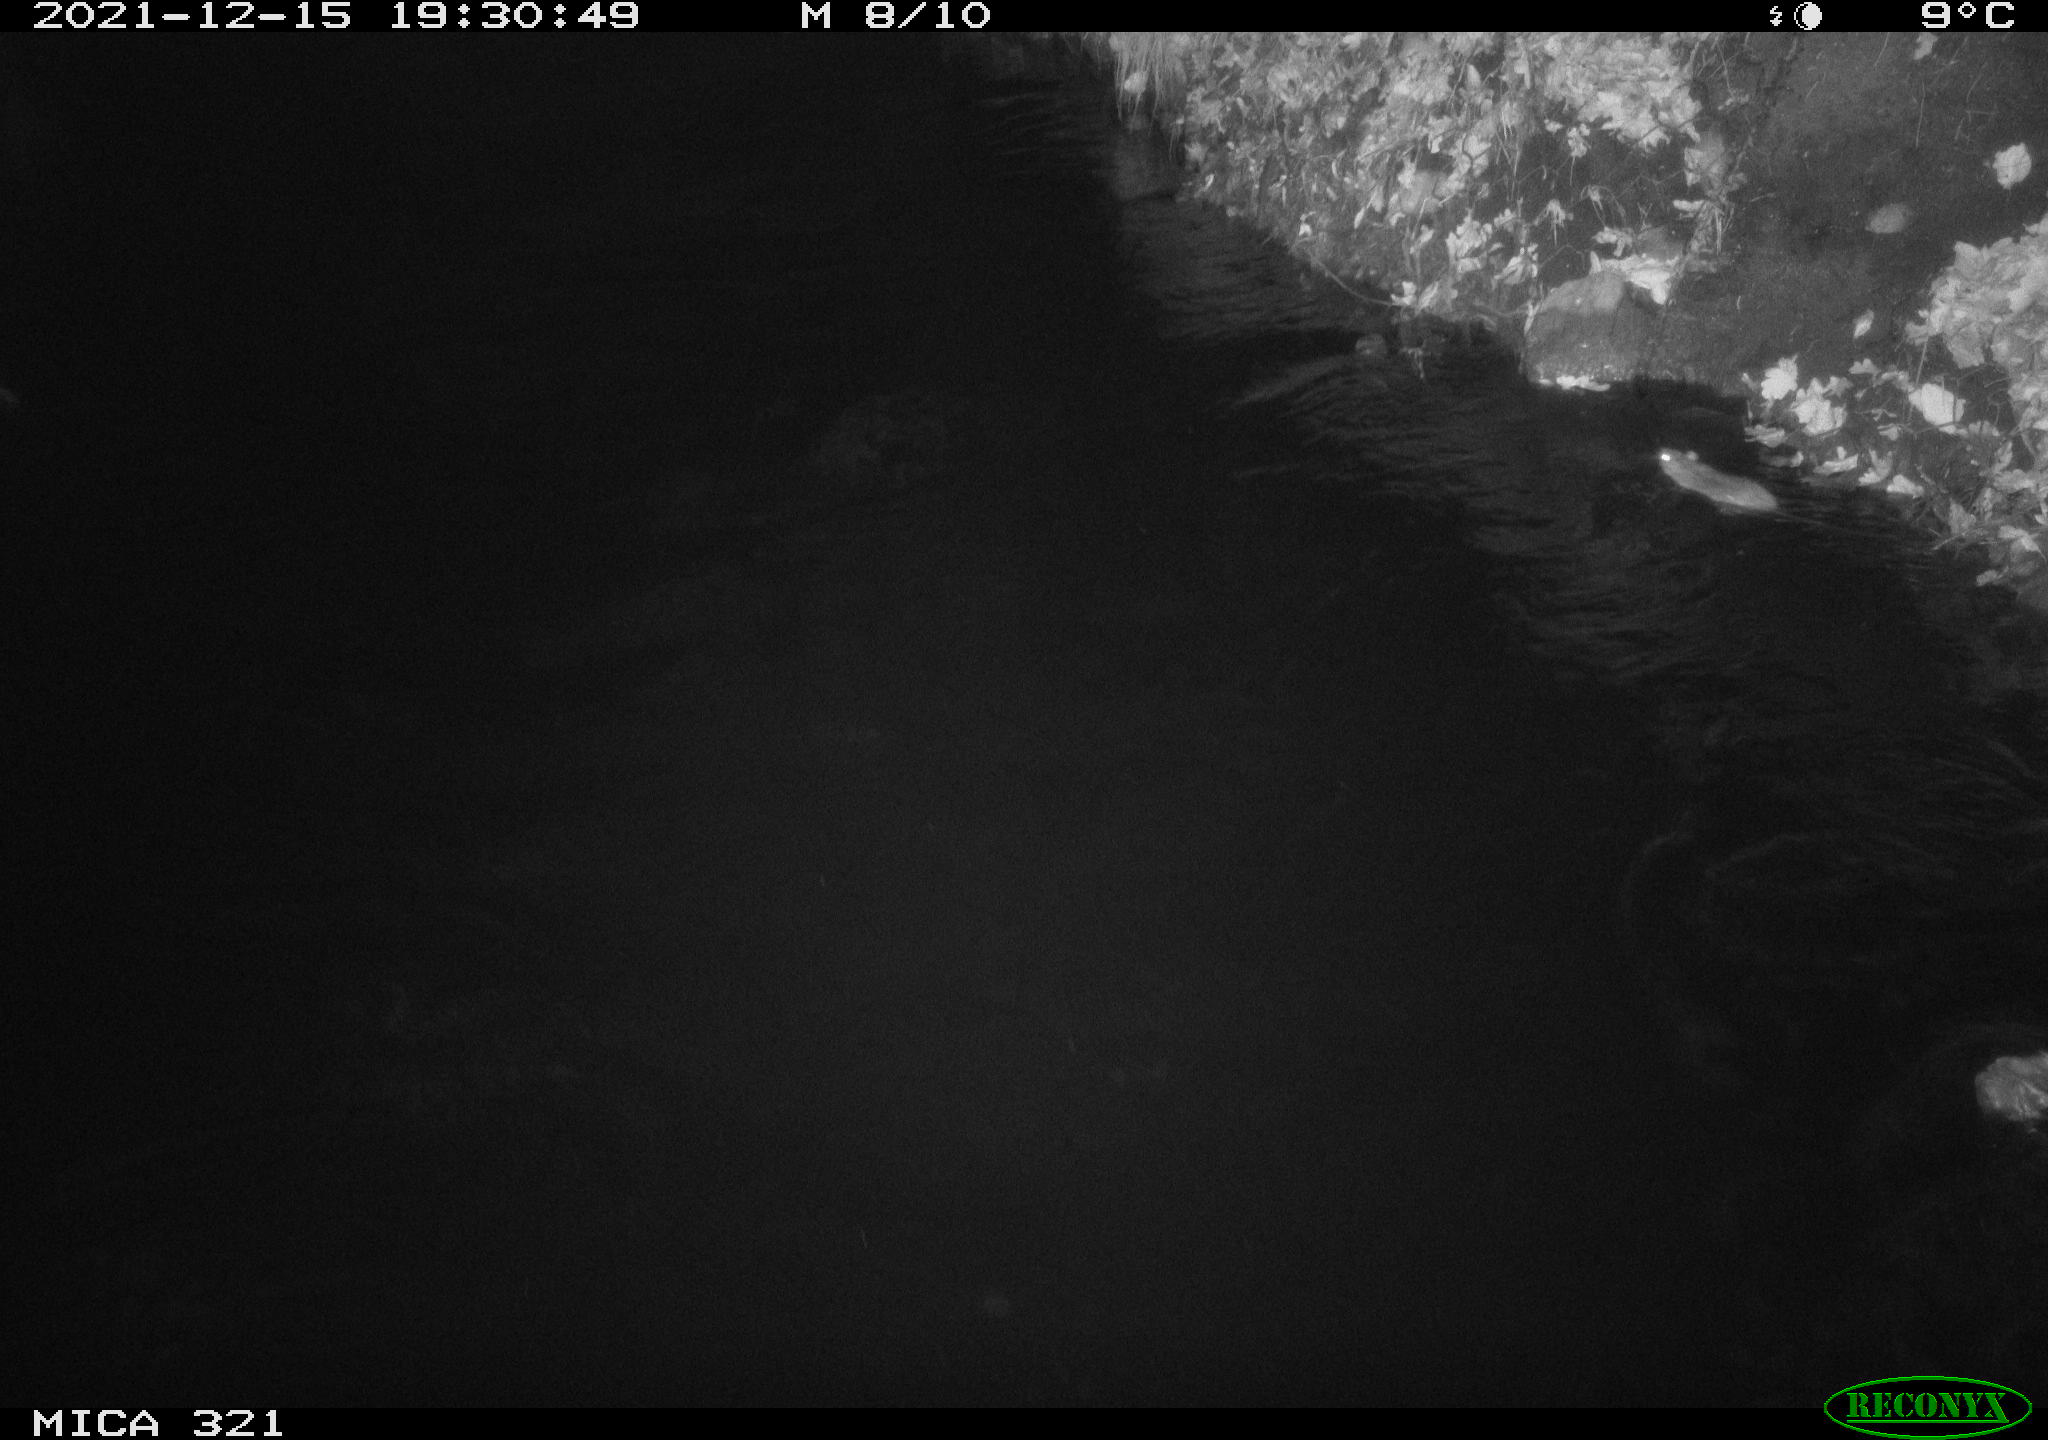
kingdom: Animalia
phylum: Chordata
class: Mammalia
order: Rodentia
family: Muridae
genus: Rattus
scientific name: Rattus norvegicus
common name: Brown rat
